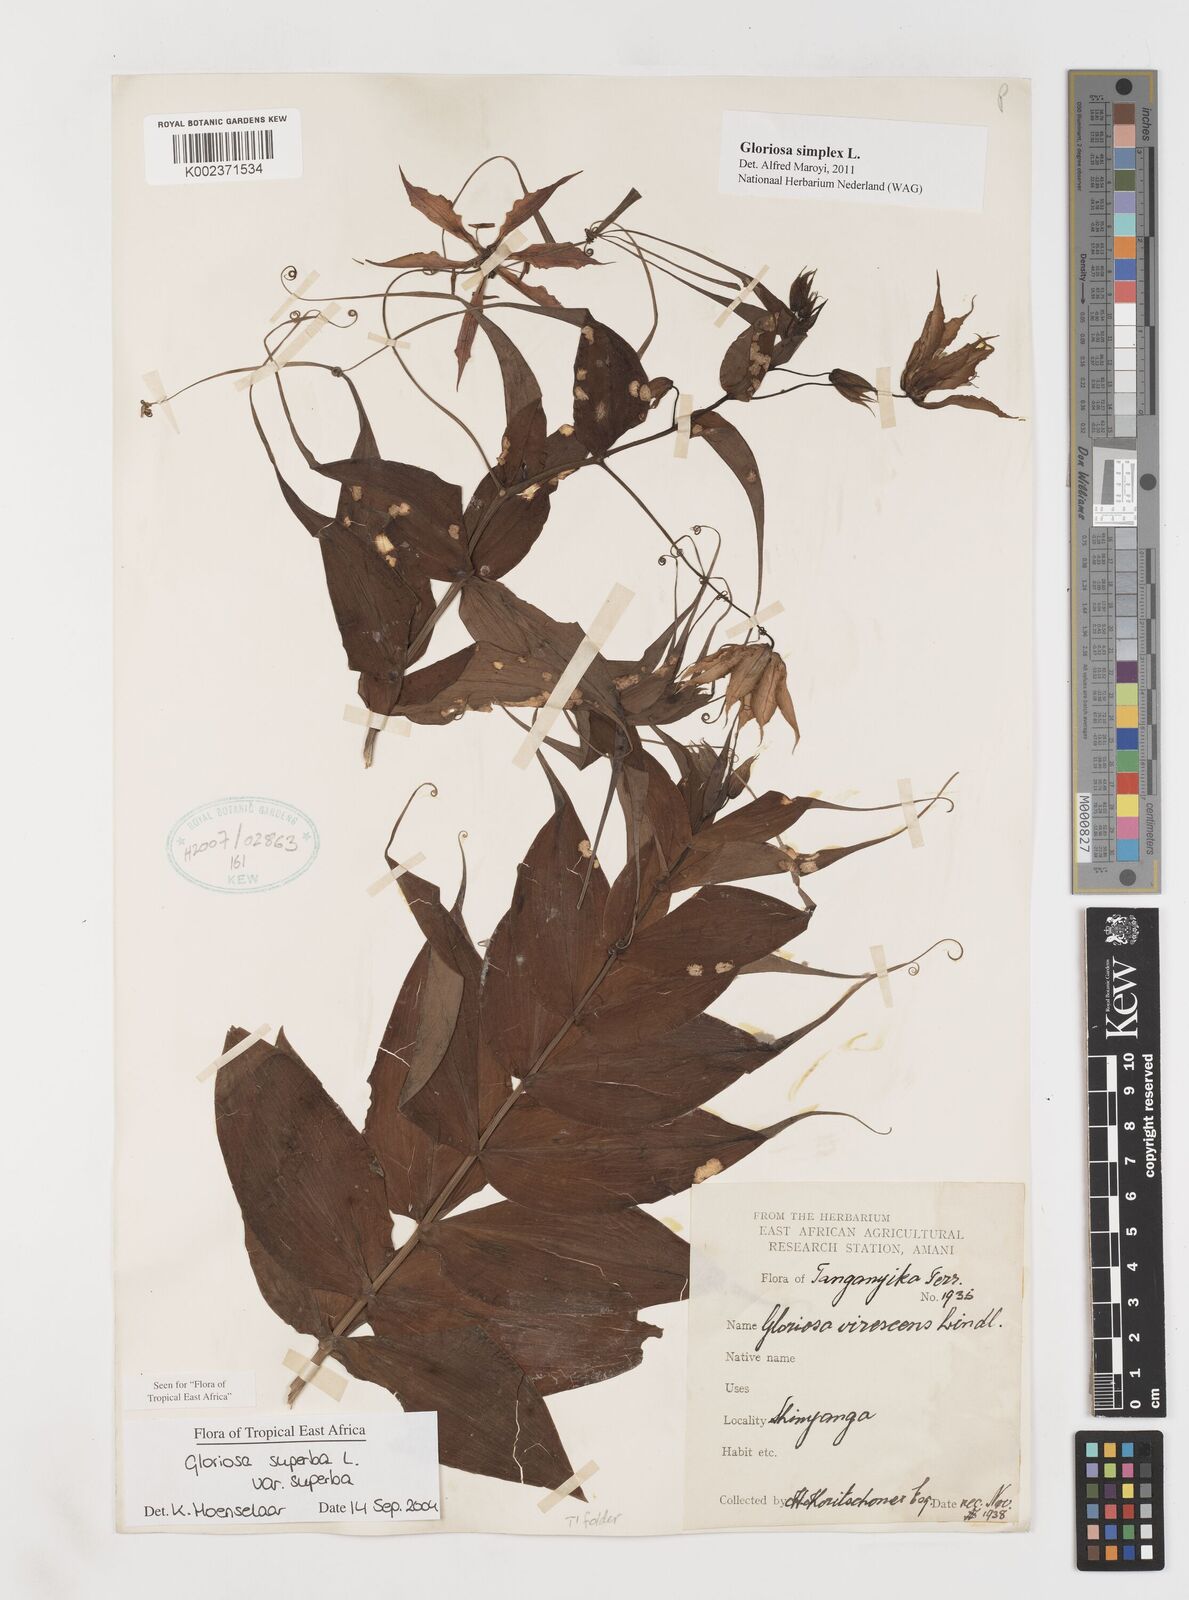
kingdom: Plantae
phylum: Tracheophyta
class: Liliopsida
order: Liliales
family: Colchicaceae
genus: Gloriosa
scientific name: Gloriosa simplex
